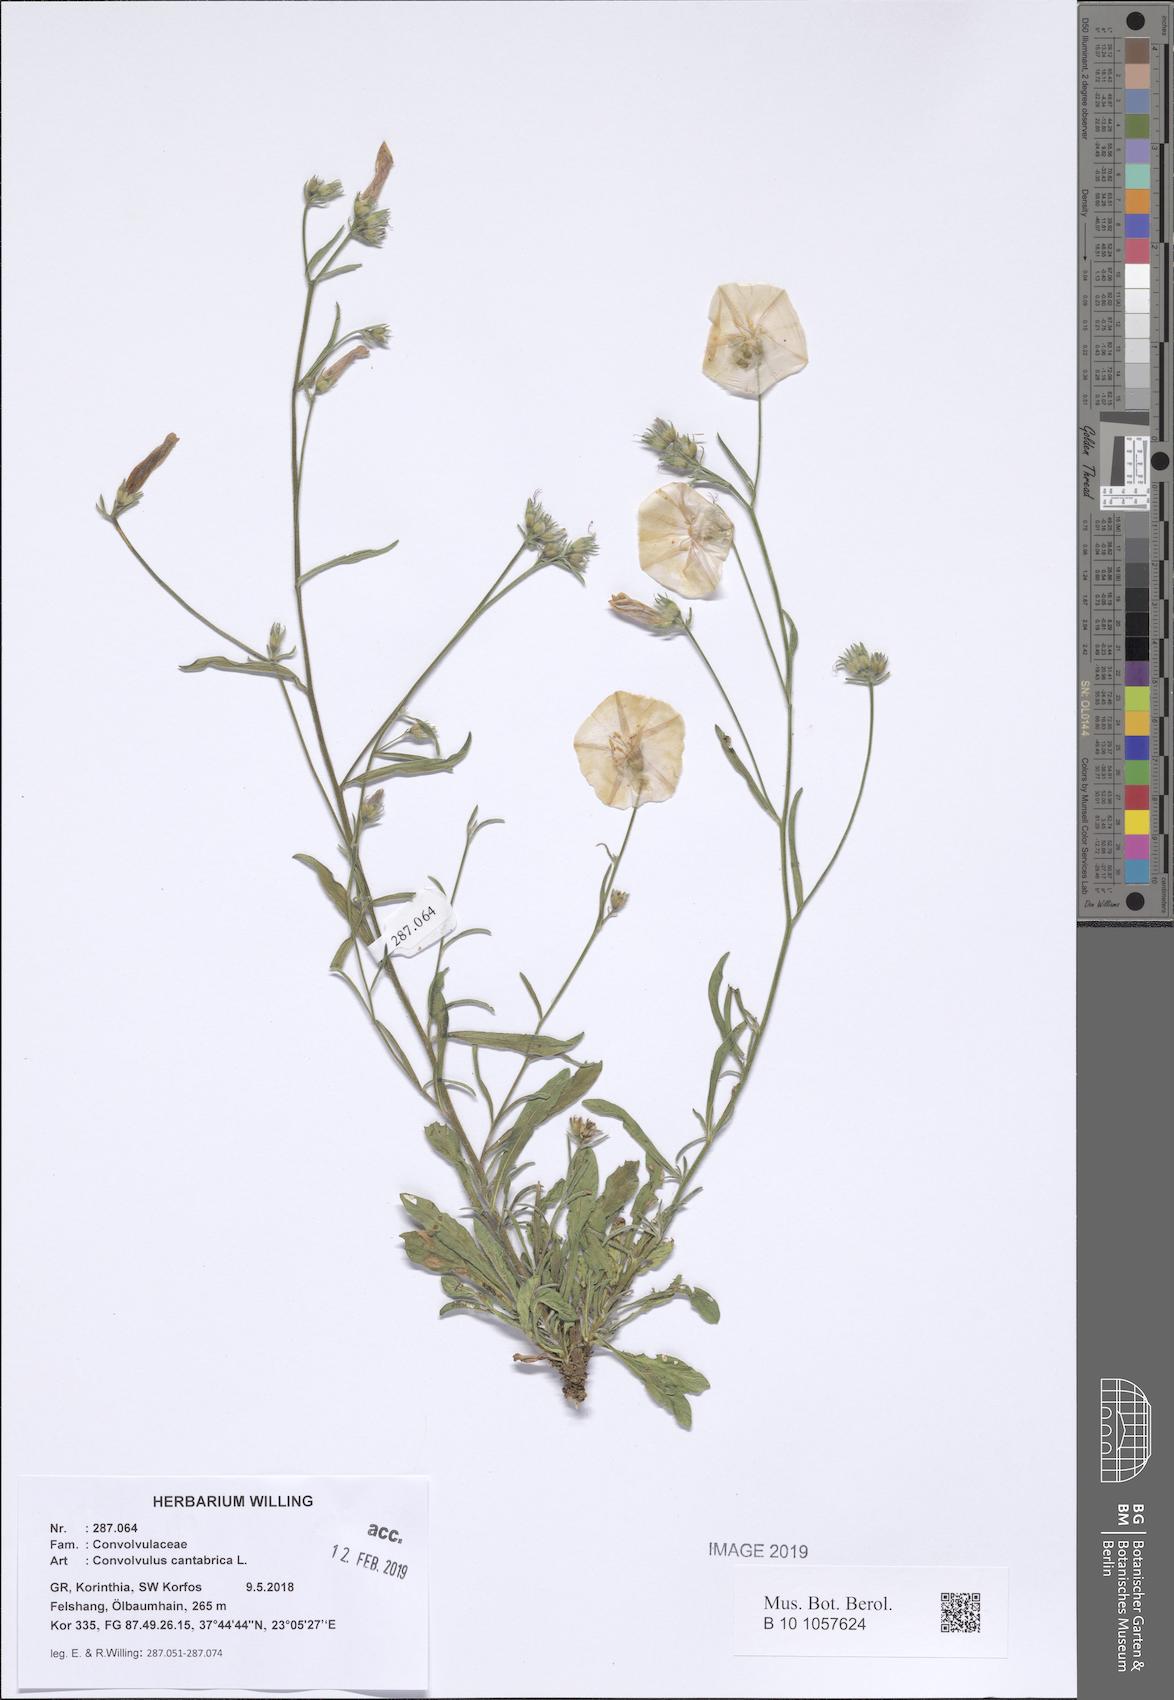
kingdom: Plantae
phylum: Tracheophyta
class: Magnoliopsida
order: Solanales
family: Convolvulaceae
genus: Convolvulus
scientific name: Convolvulus cantabrica
